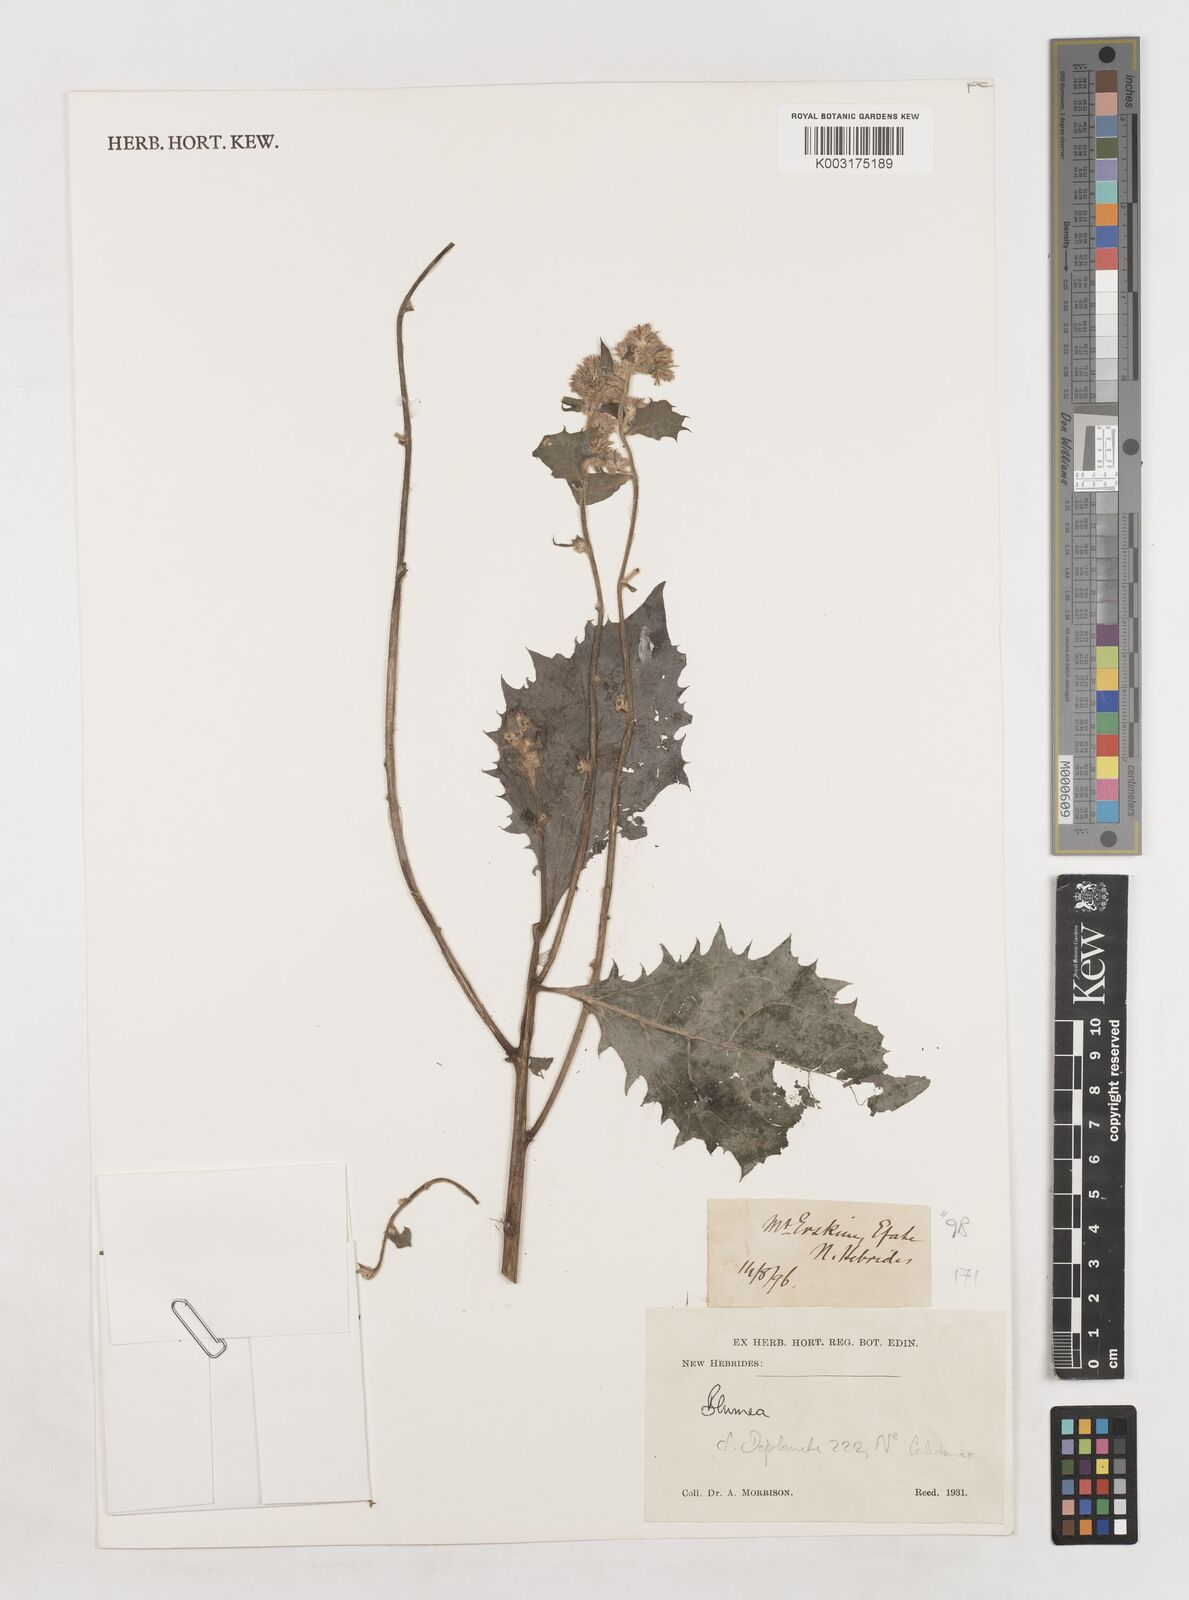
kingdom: Plantae
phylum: Tracheophyta
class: Magnoliopsida
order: Asterales
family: Asteraceae
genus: Blumea
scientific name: Blumea
